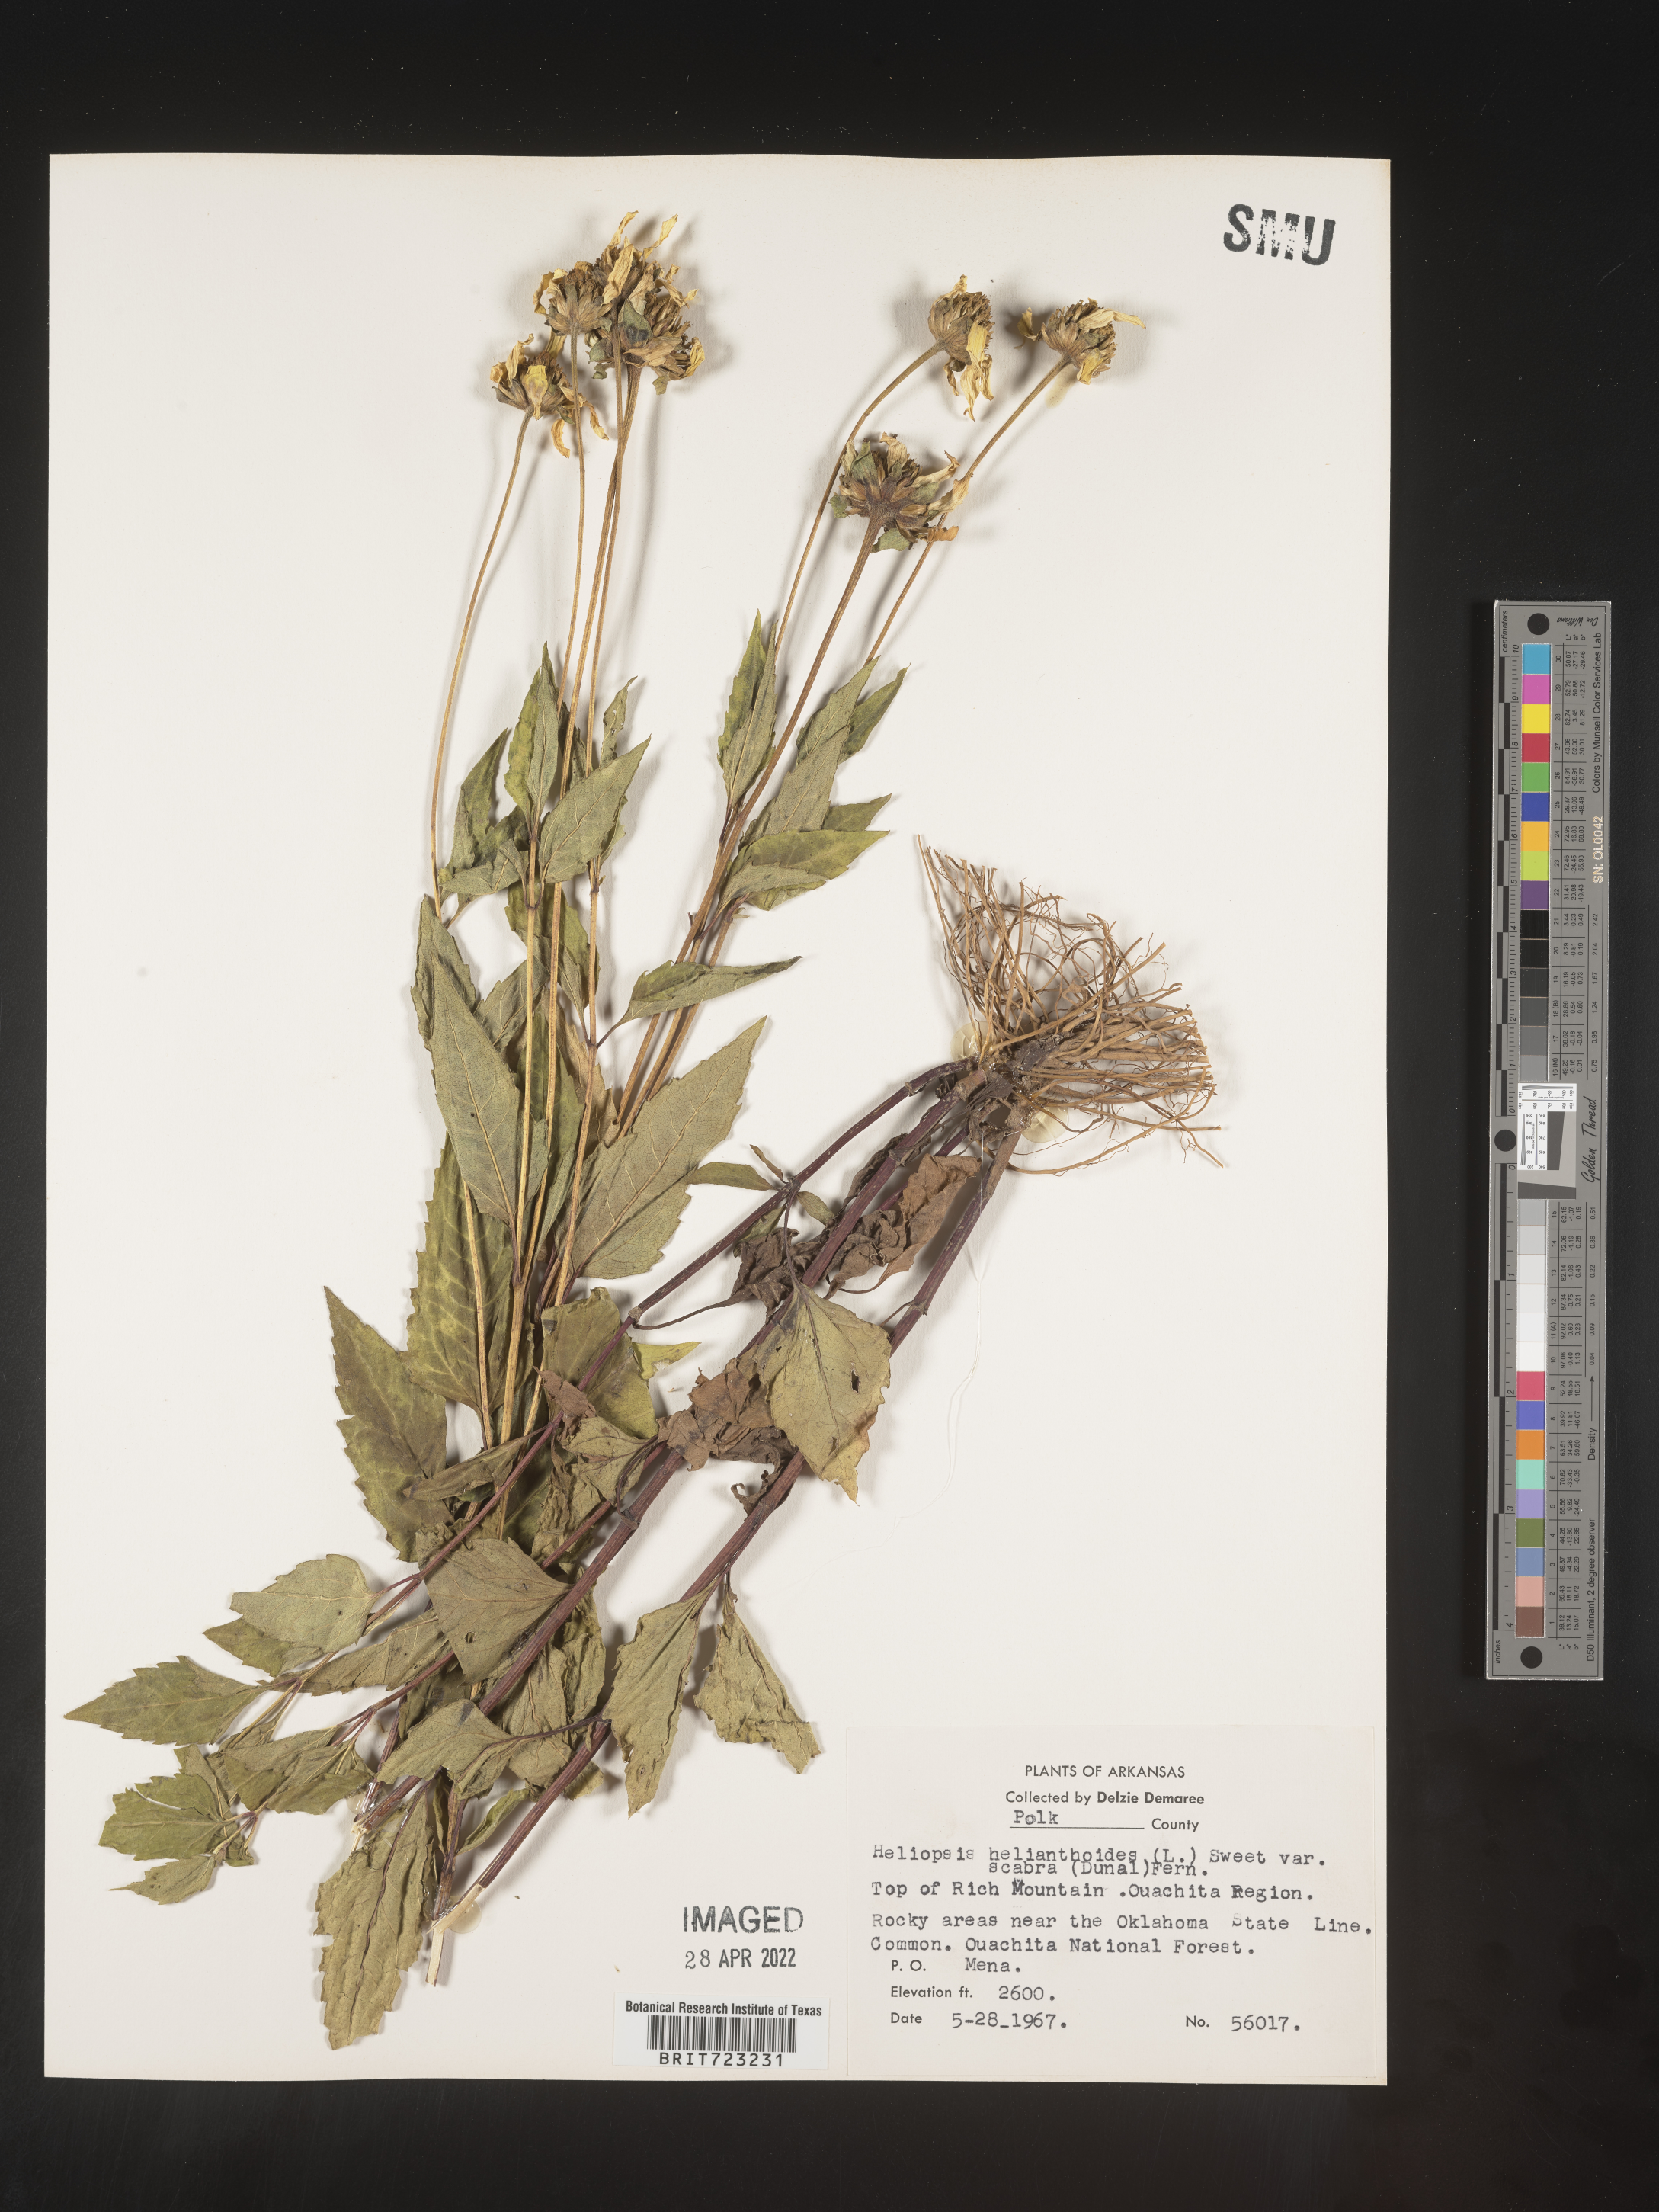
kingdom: Plantae
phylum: Tracheophyta
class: Magnoliopsida
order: Asterales
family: Asteraceae
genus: Heliopsis
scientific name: Heliopsis helianthoides
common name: False sunflower
